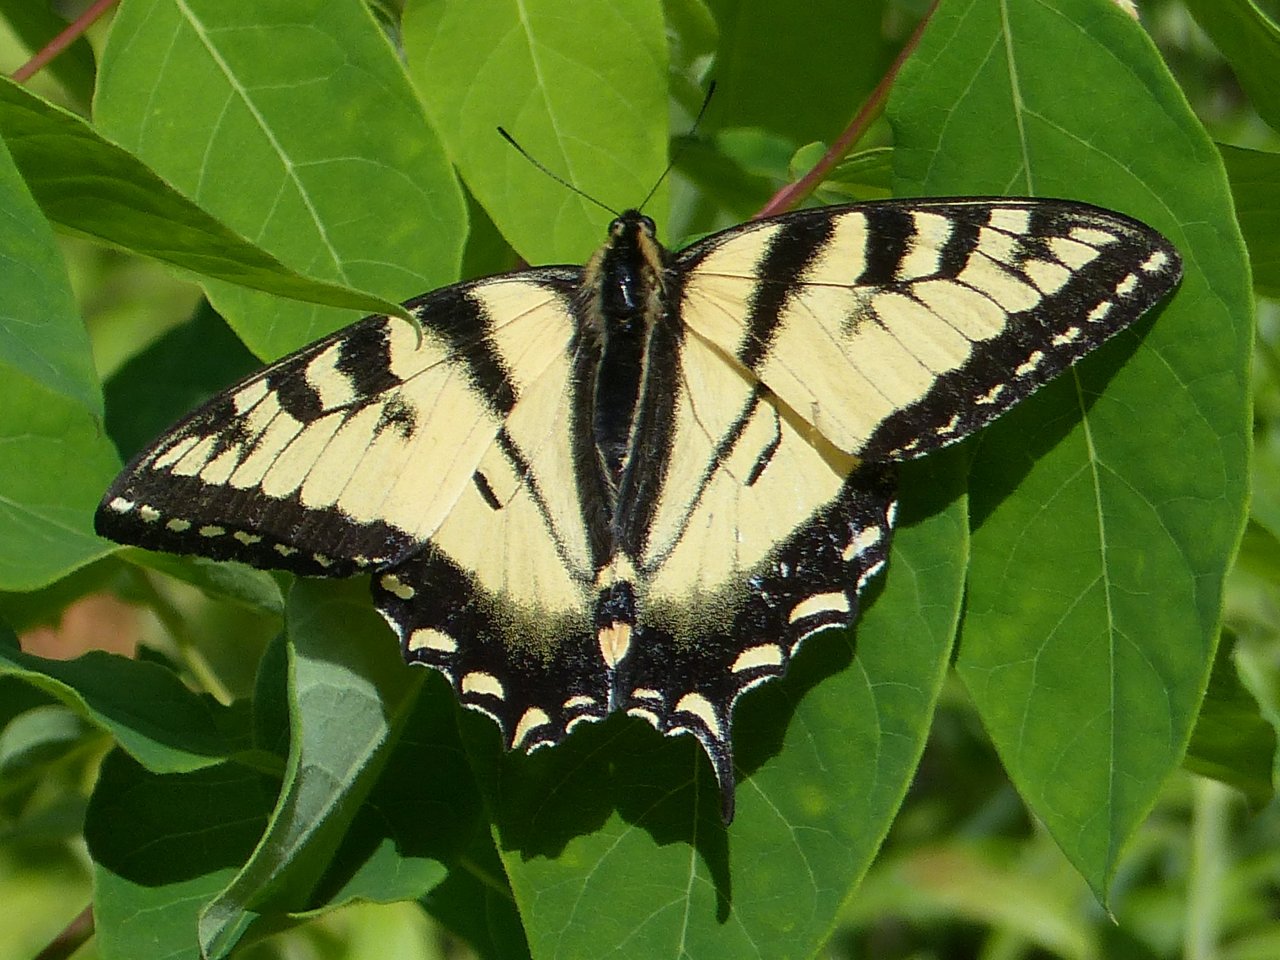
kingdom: Animalia
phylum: Arthropoda
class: Insecta
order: Lepidoptera
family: Papilionidae
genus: Pterourus
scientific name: Pterourus canadensis
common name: Canadian Tiger Swallowtail
